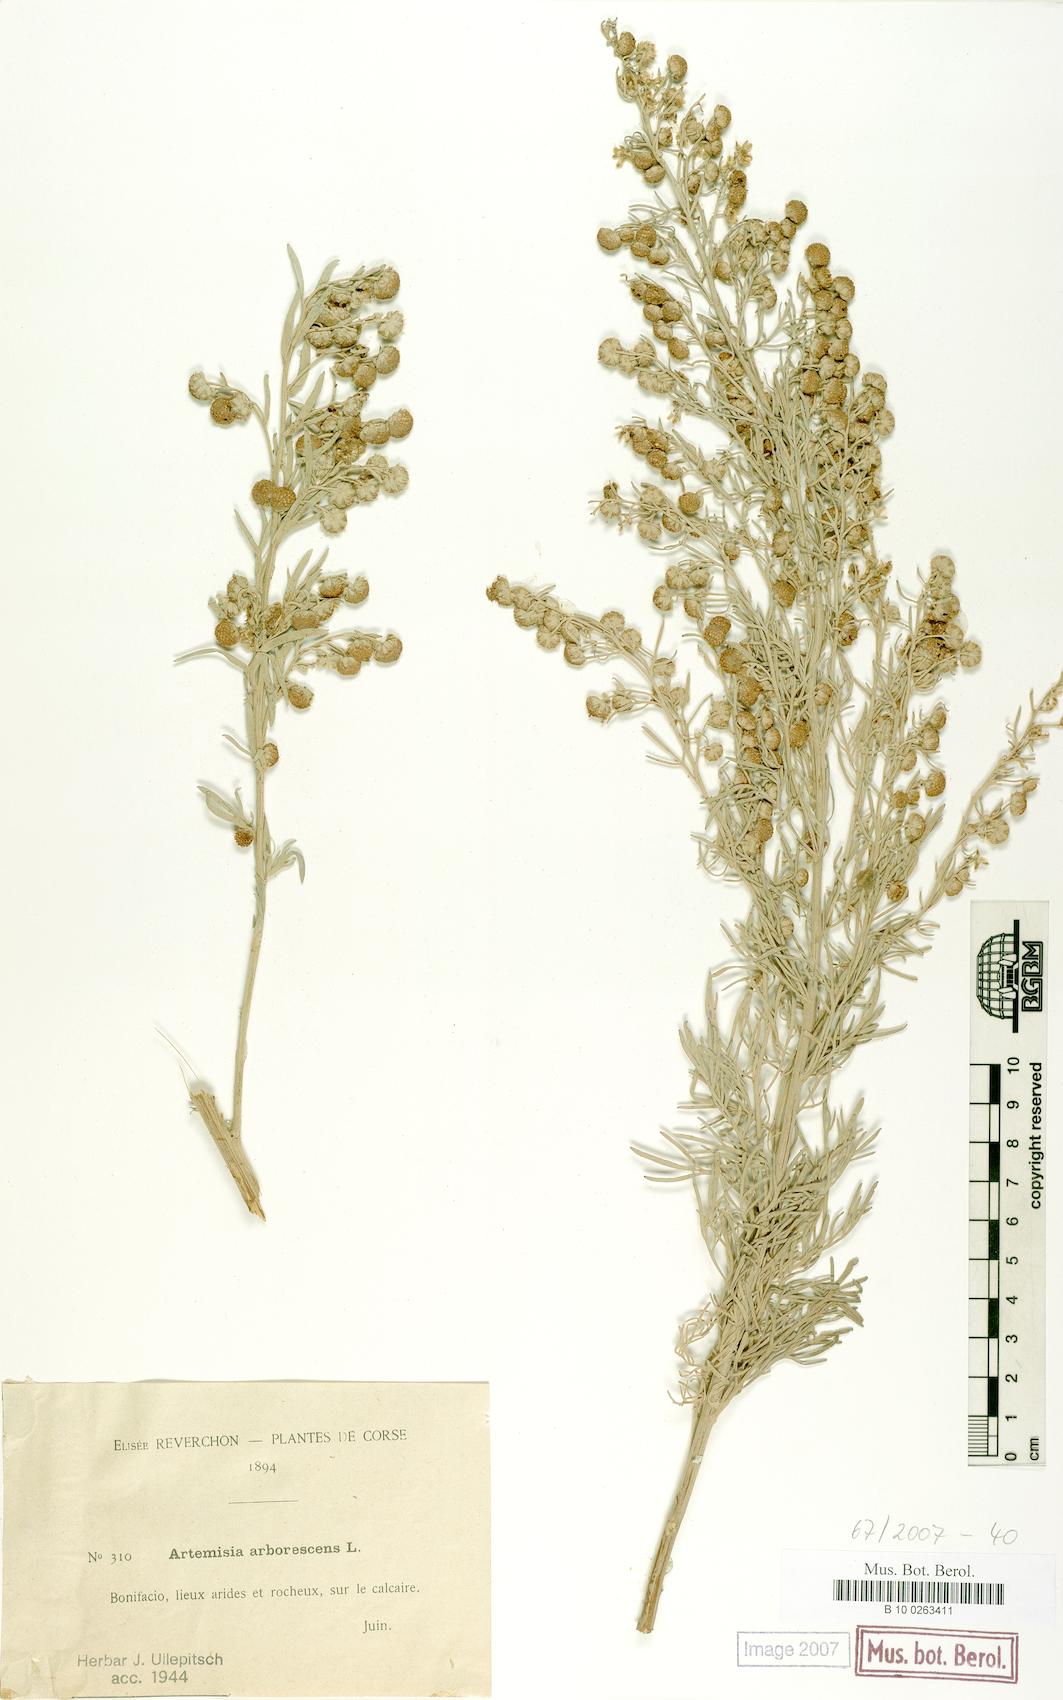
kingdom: Plantae
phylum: Tracheophyta
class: Magnoliopsida
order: Asterales
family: Asteraceae
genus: Artemisia
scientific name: Artemisia arborescens
